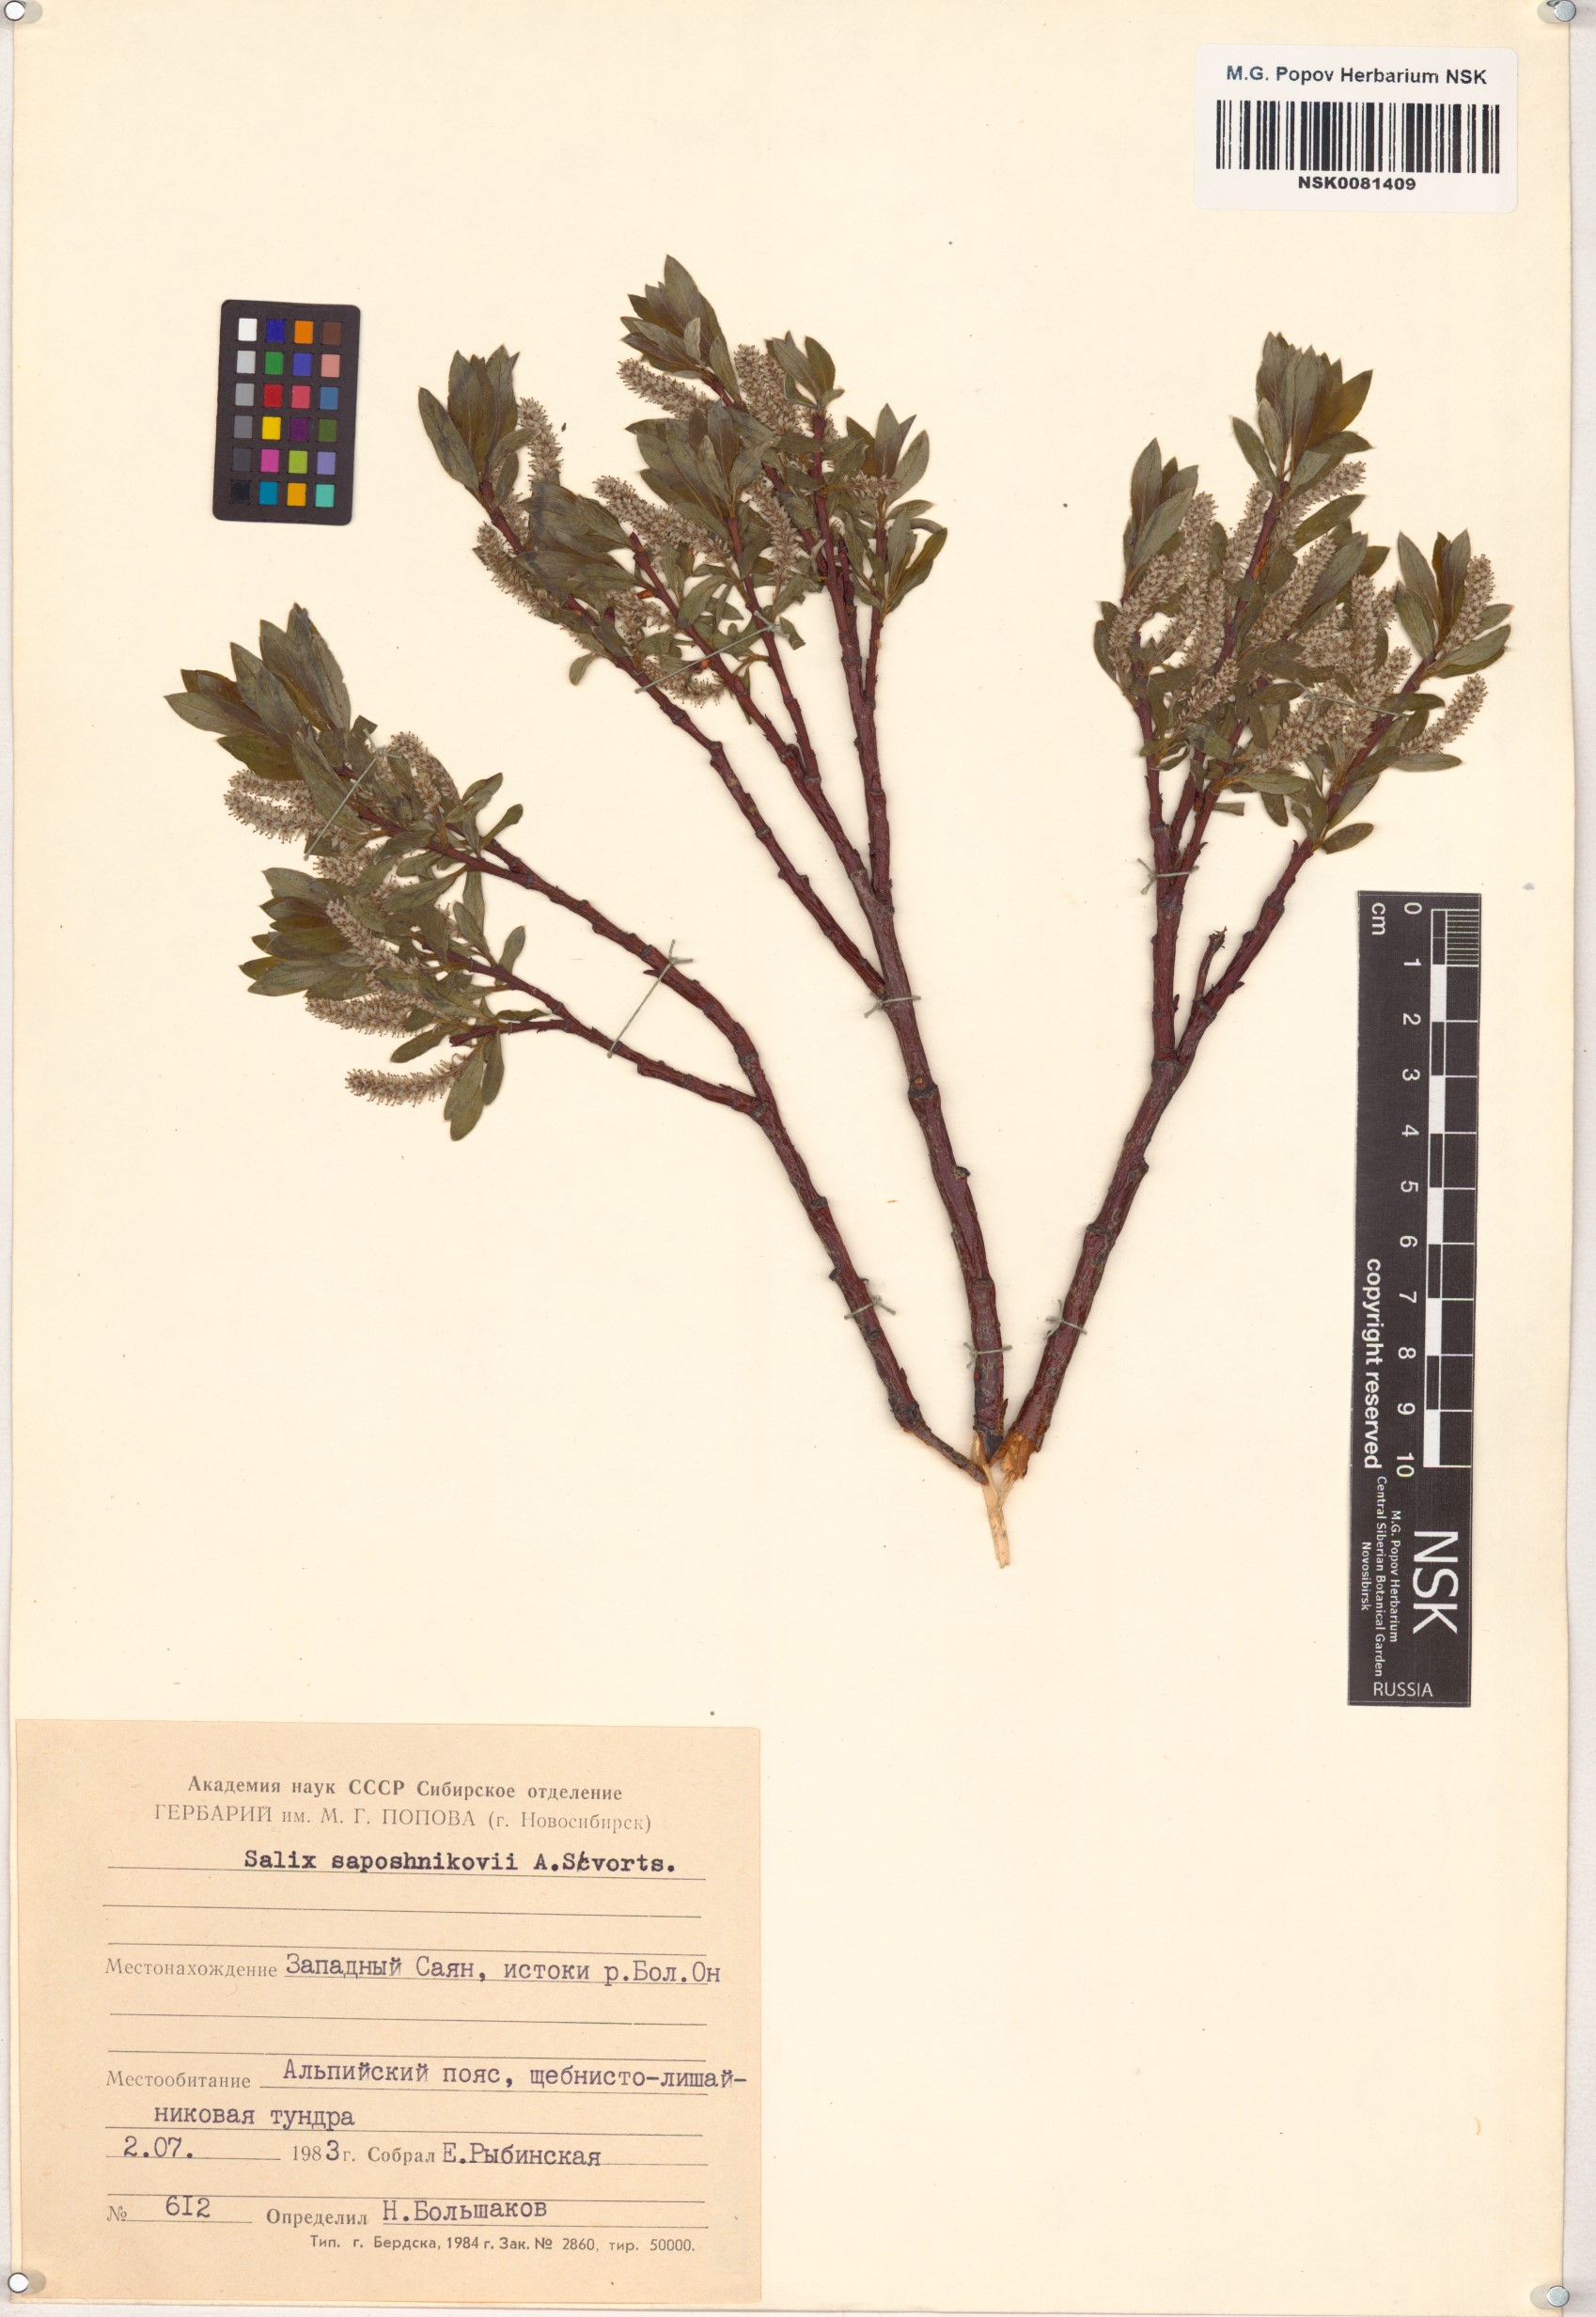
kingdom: Plantae
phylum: Tracheophyta
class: Magnoliopsida
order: Malpighiales
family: Salicaceae
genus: Salix
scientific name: Salix saposhnikovii
